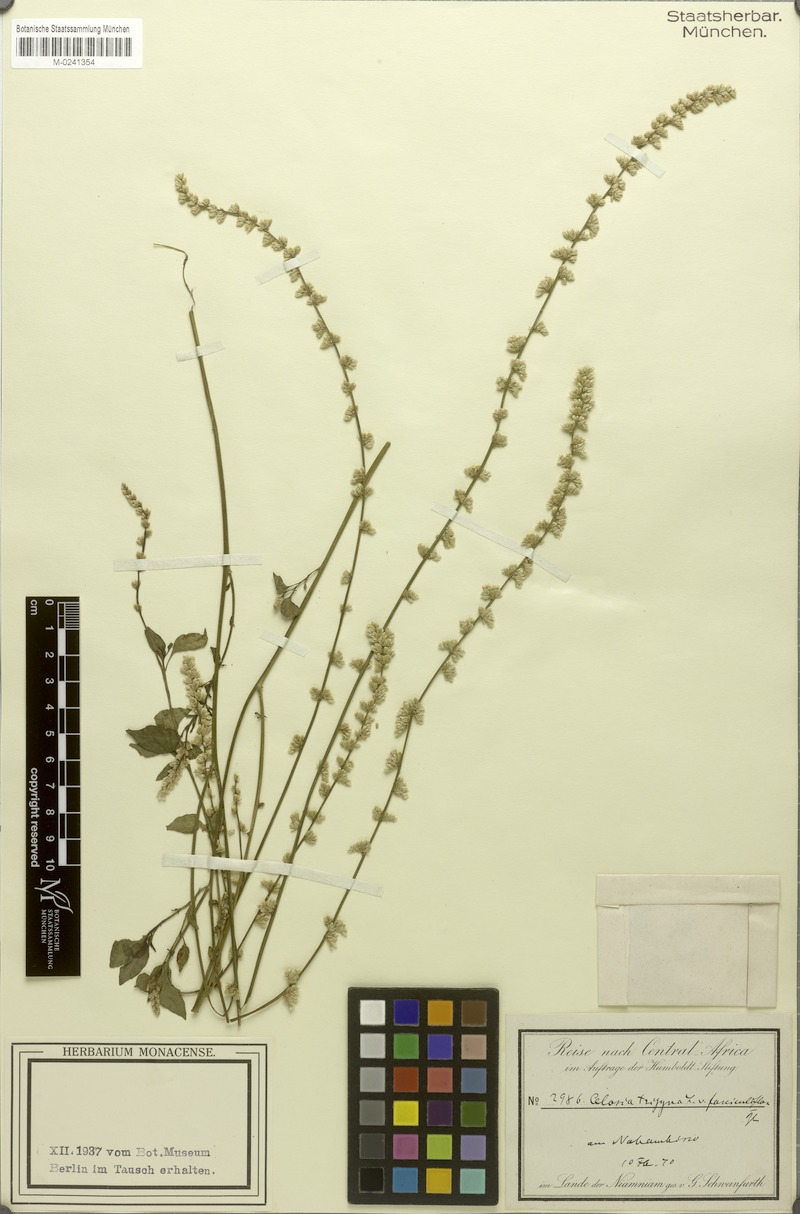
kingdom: Plantae
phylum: Tracheophyta
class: Magnoliopsida
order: Caryophyllales
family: Amaranthaceae
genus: Celosia
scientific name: Celosia trigyna
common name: Woolflower
